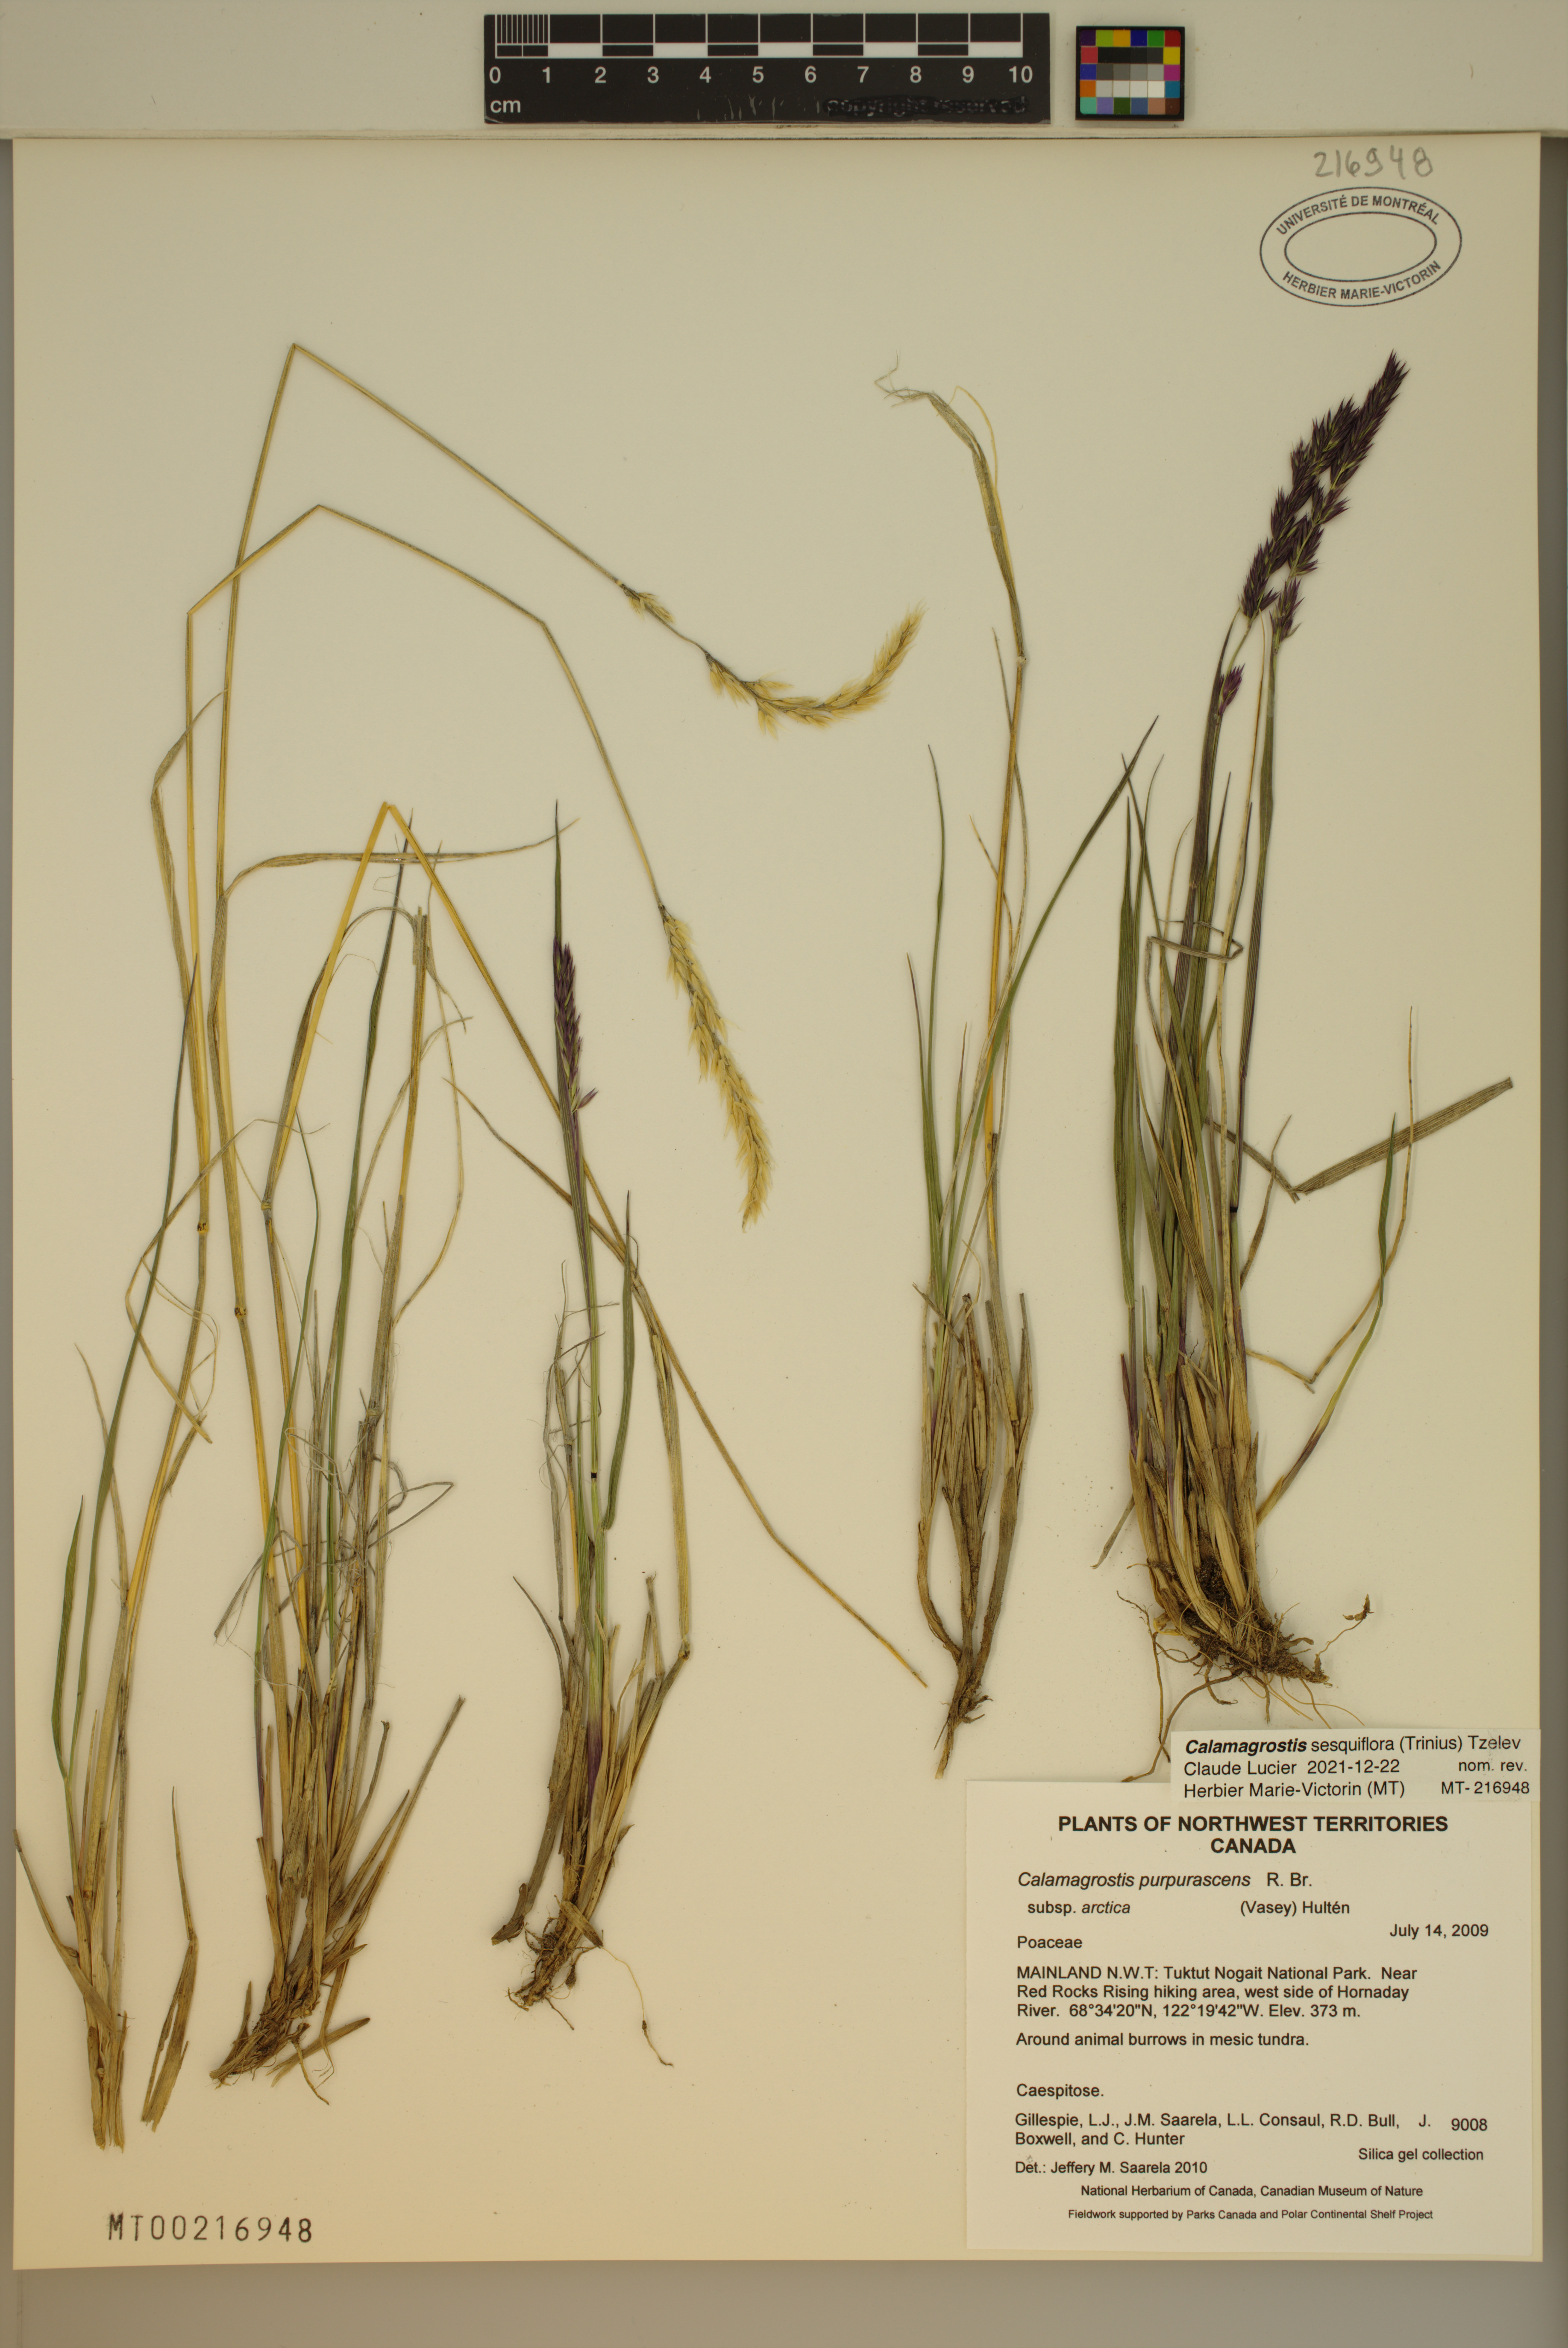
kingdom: Plantae
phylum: Tracheophyta
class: Liliopsida
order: Poales
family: Poaceae
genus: Calamagrostis
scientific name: Calamagrostis sesquiflora
